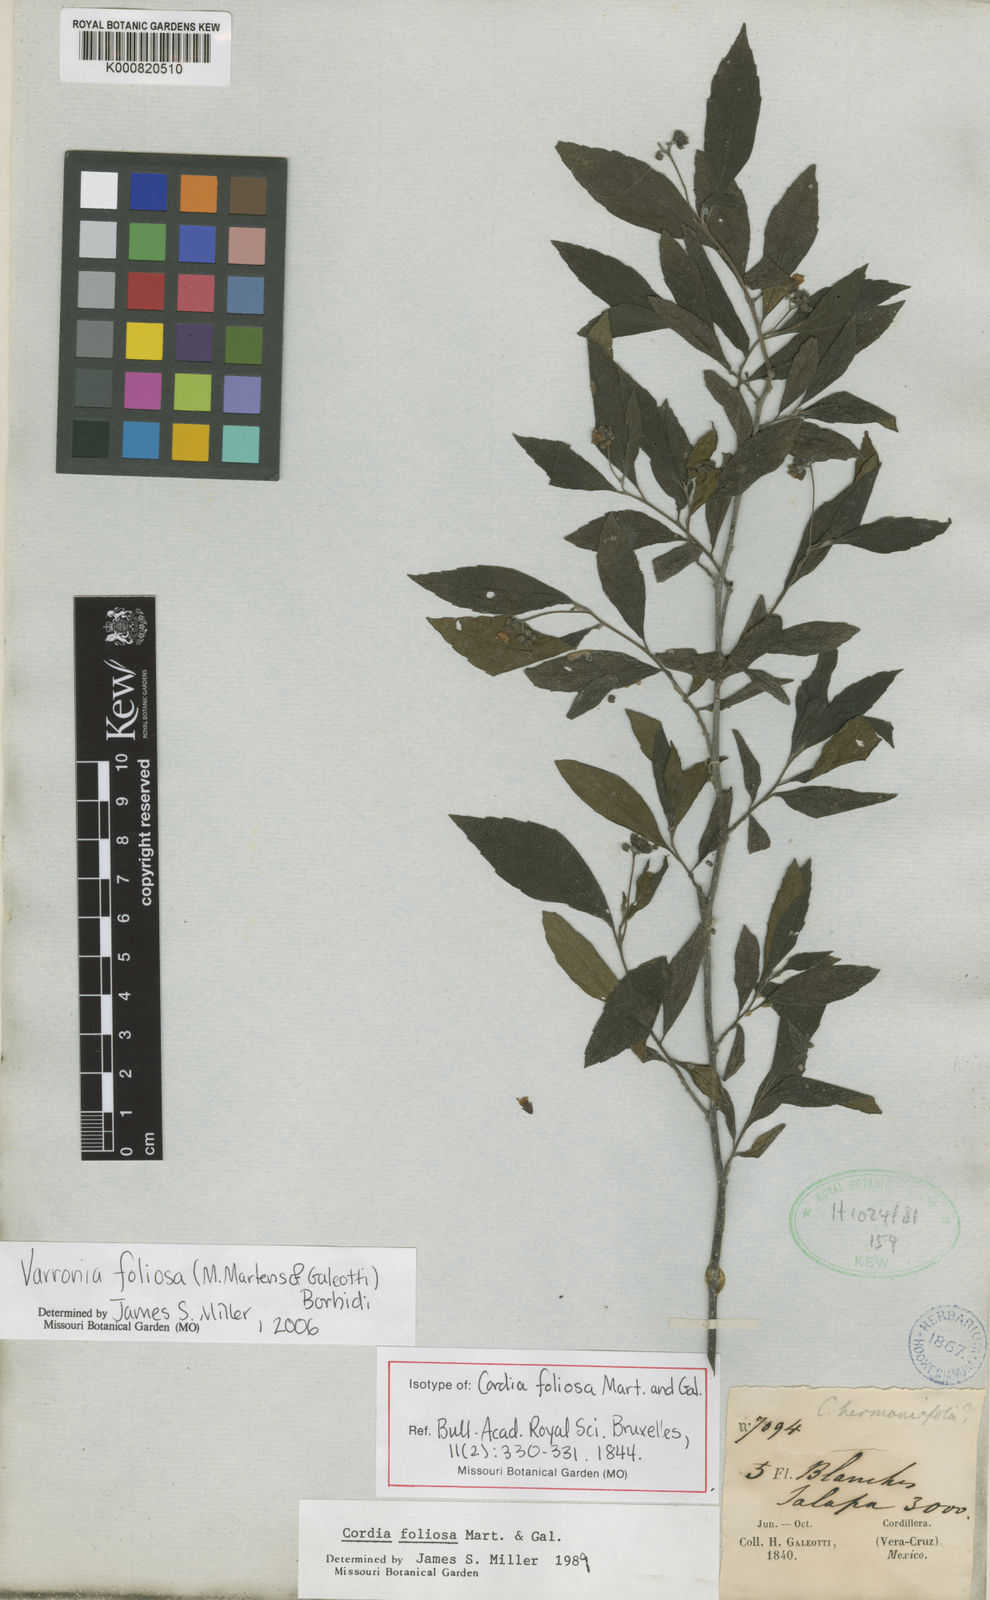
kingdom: Plantae
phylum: Tracheophyta
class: Magnoliopsida
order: Boraginales
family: Cordiaceae
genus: Varronia
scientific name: Varronia foliosa
